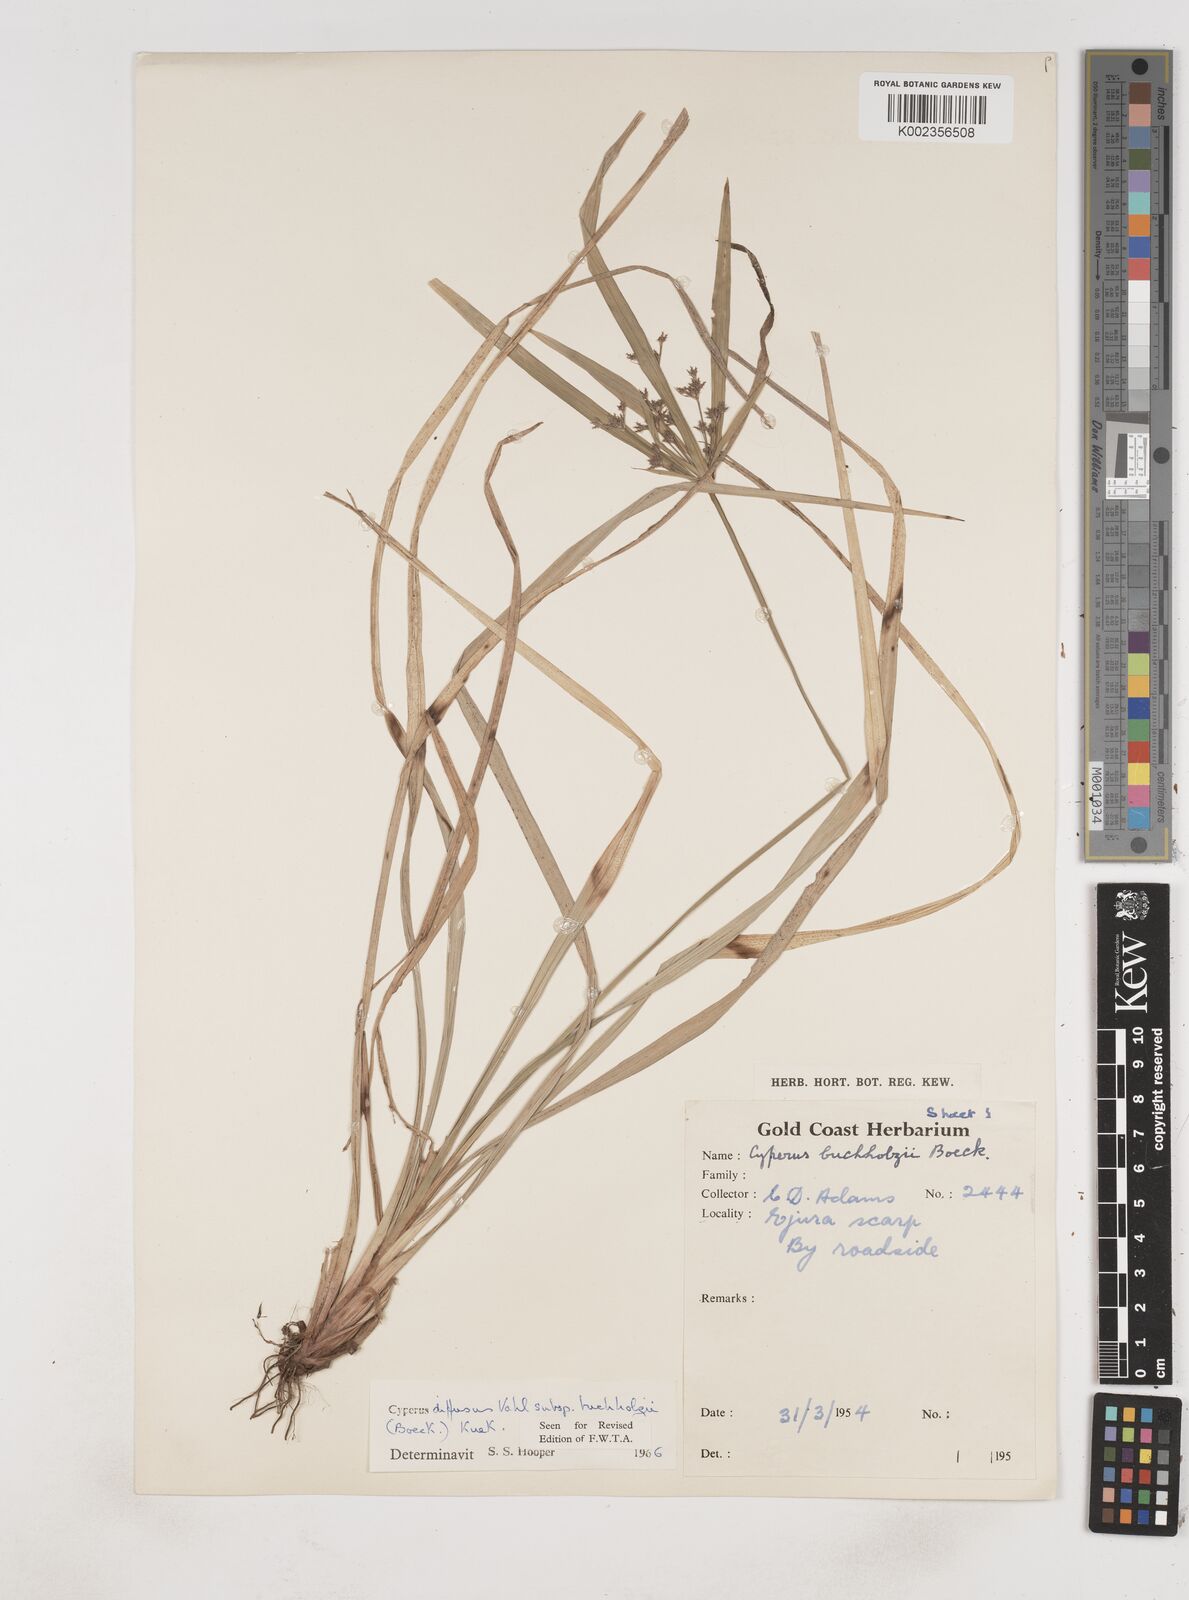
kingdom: Plantae
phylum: Tracheophyta
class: Liliopsida
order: Poales
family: Cyperaceae
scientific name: Cyperaceae
